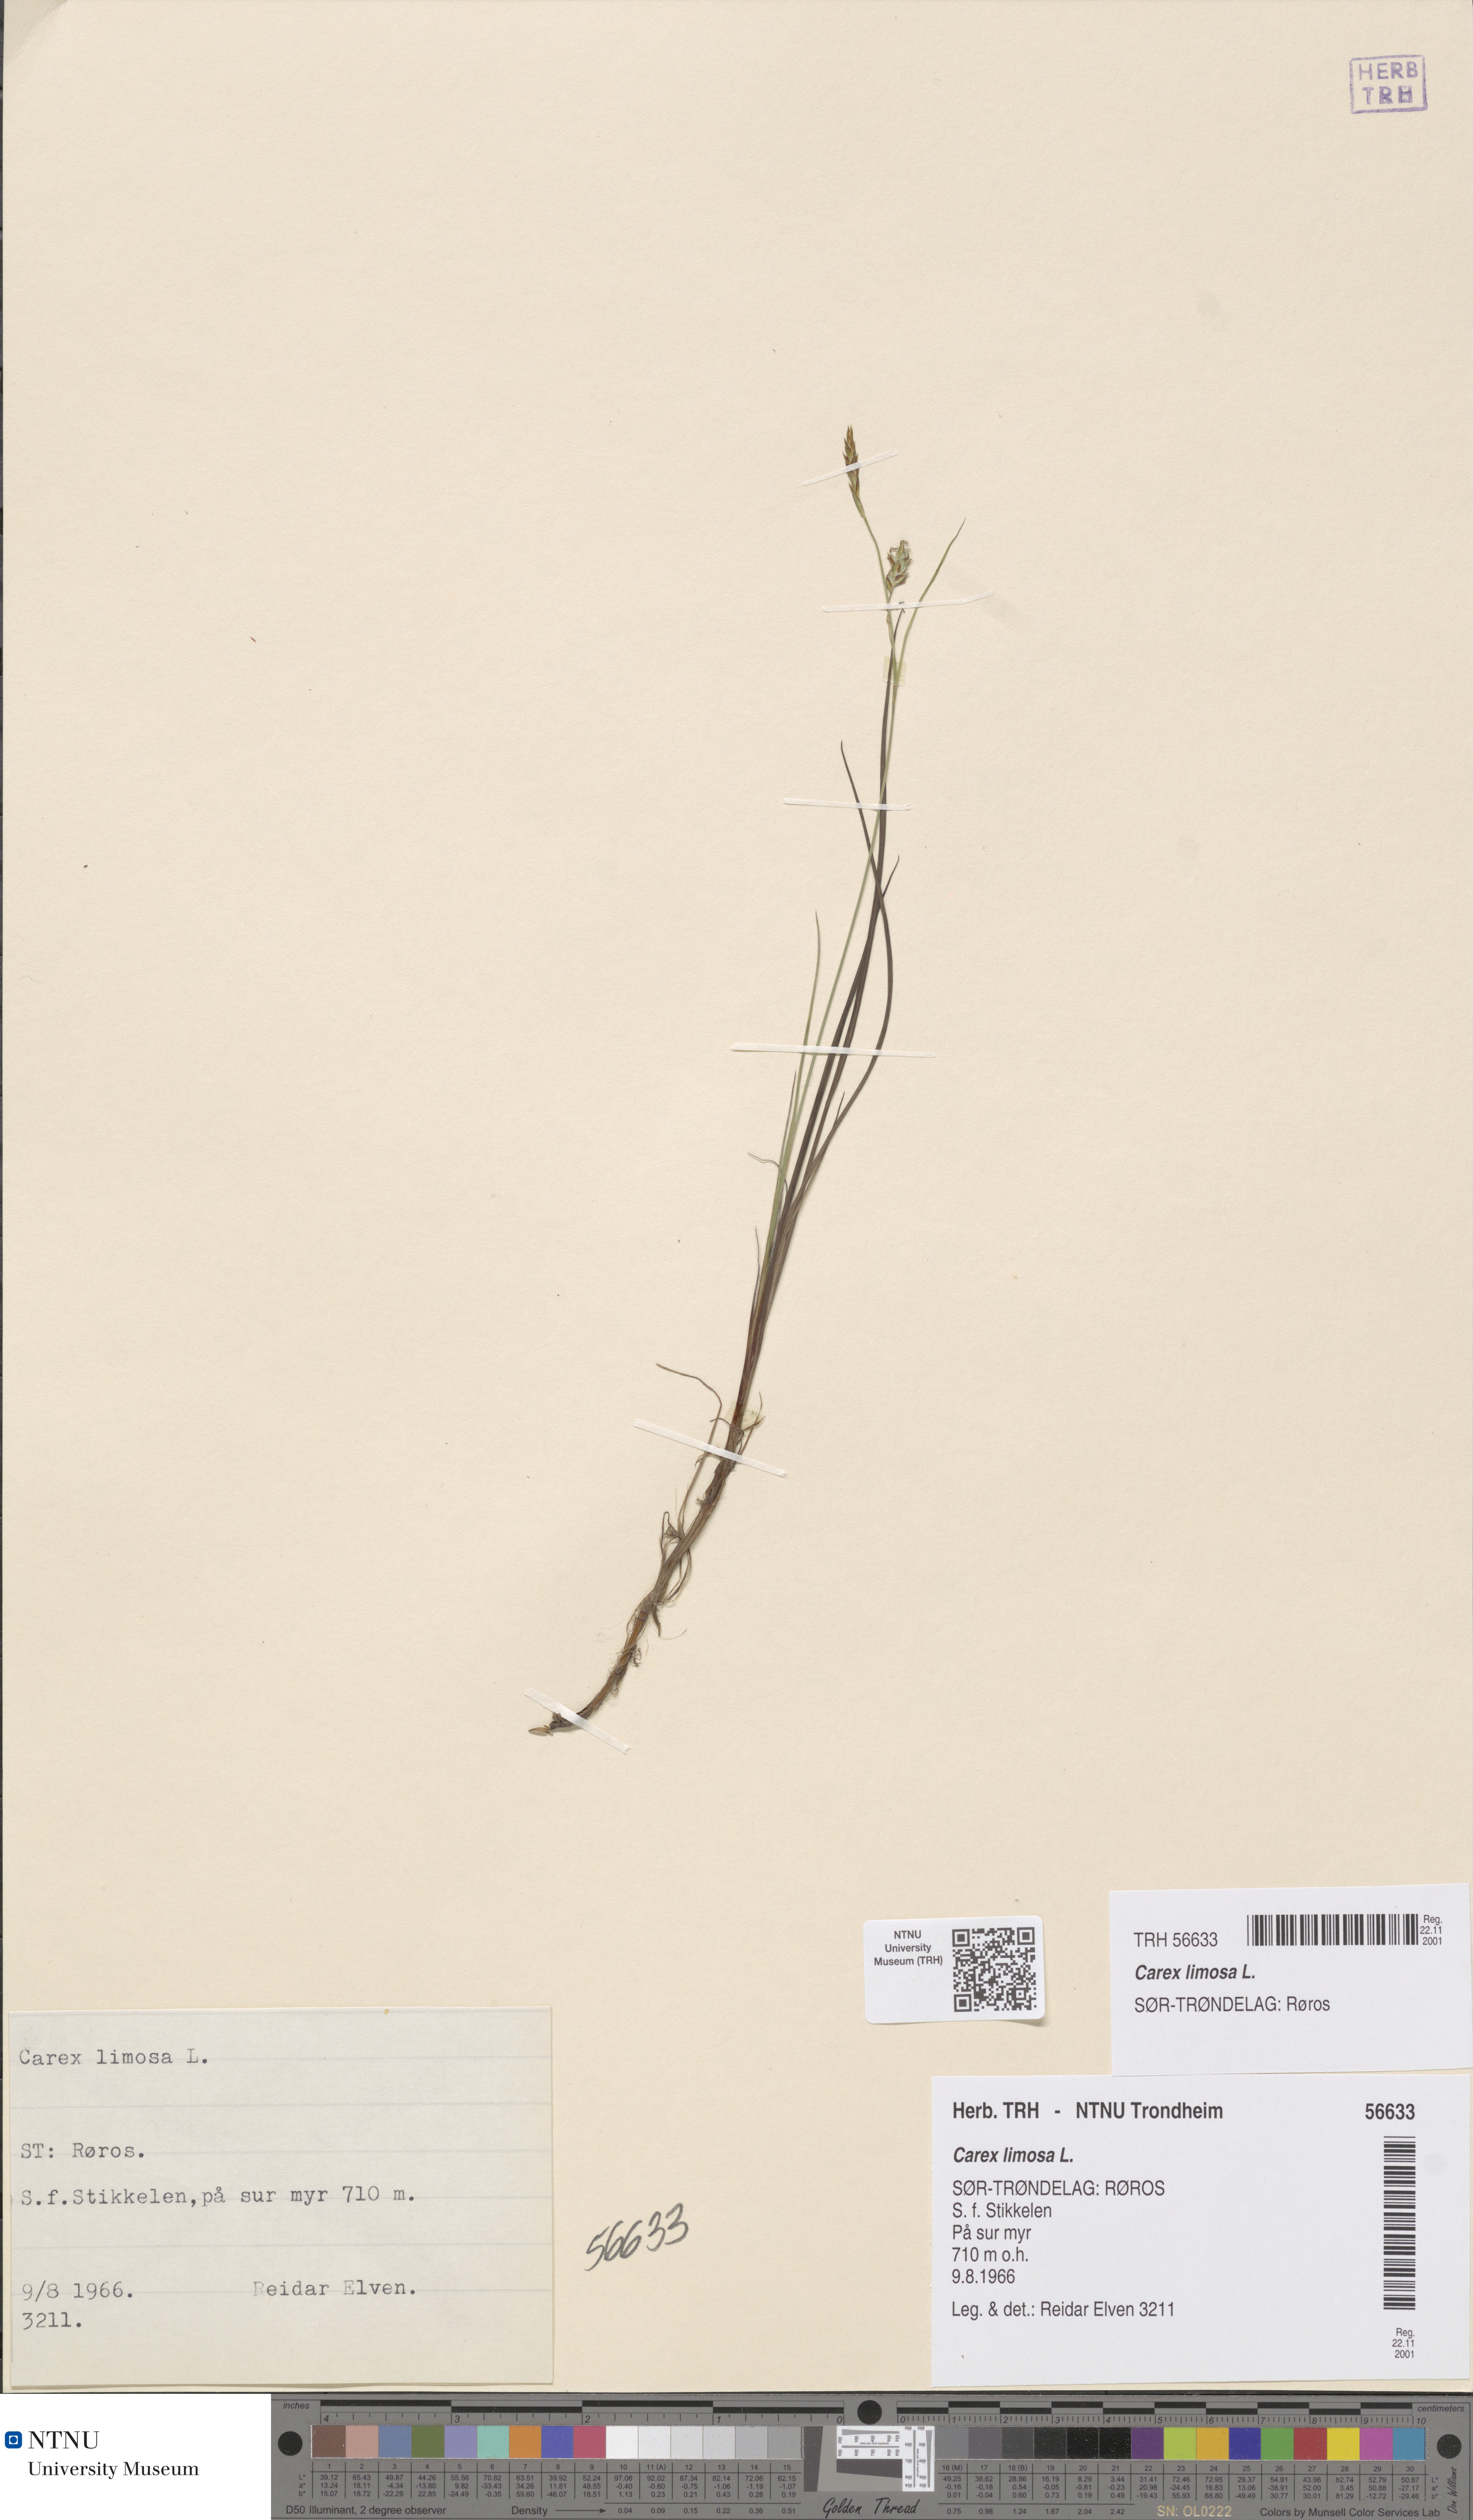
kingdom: Plantae
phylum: Tracheophyta
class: Liliopsida
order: Poales
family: Cyperaceae
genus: Carex
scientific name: Carex limosa
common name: Bog sedge
